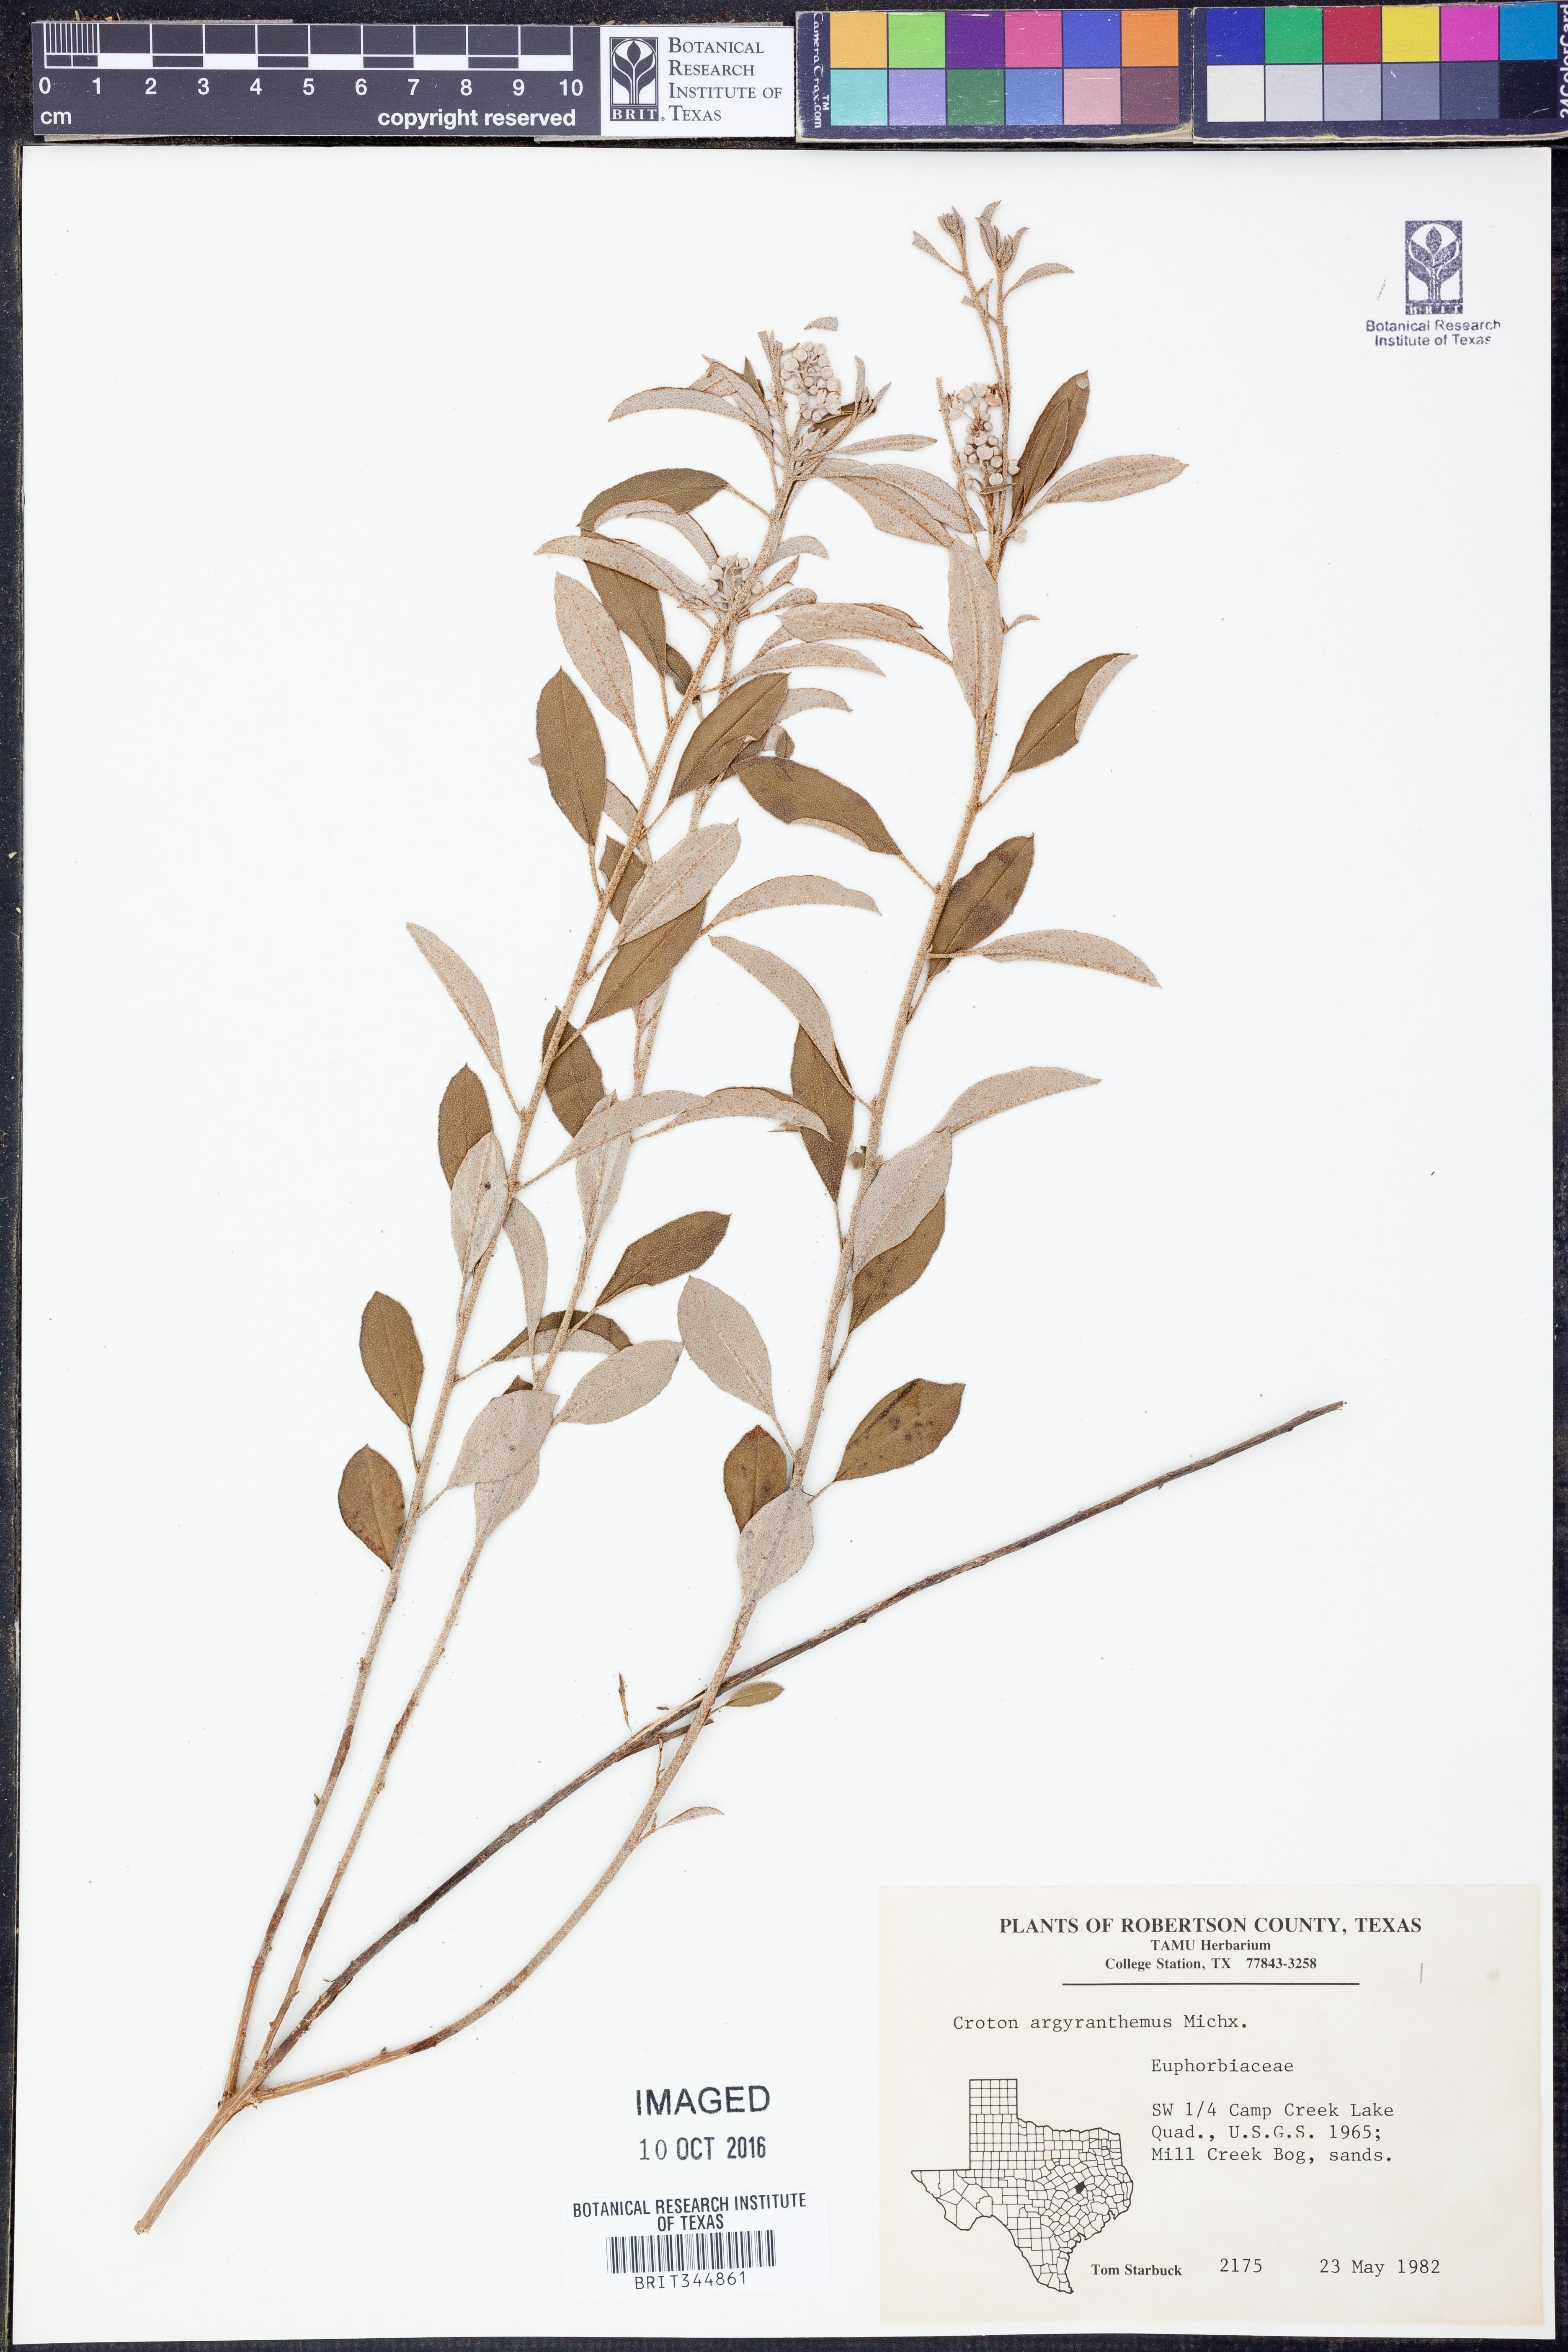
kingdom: Plantae
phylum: Tracheophyta
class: Magnoliopsida
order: Malpighiales
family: Euphorbiaceae
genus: Croton
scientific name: Croton argyranthemus
